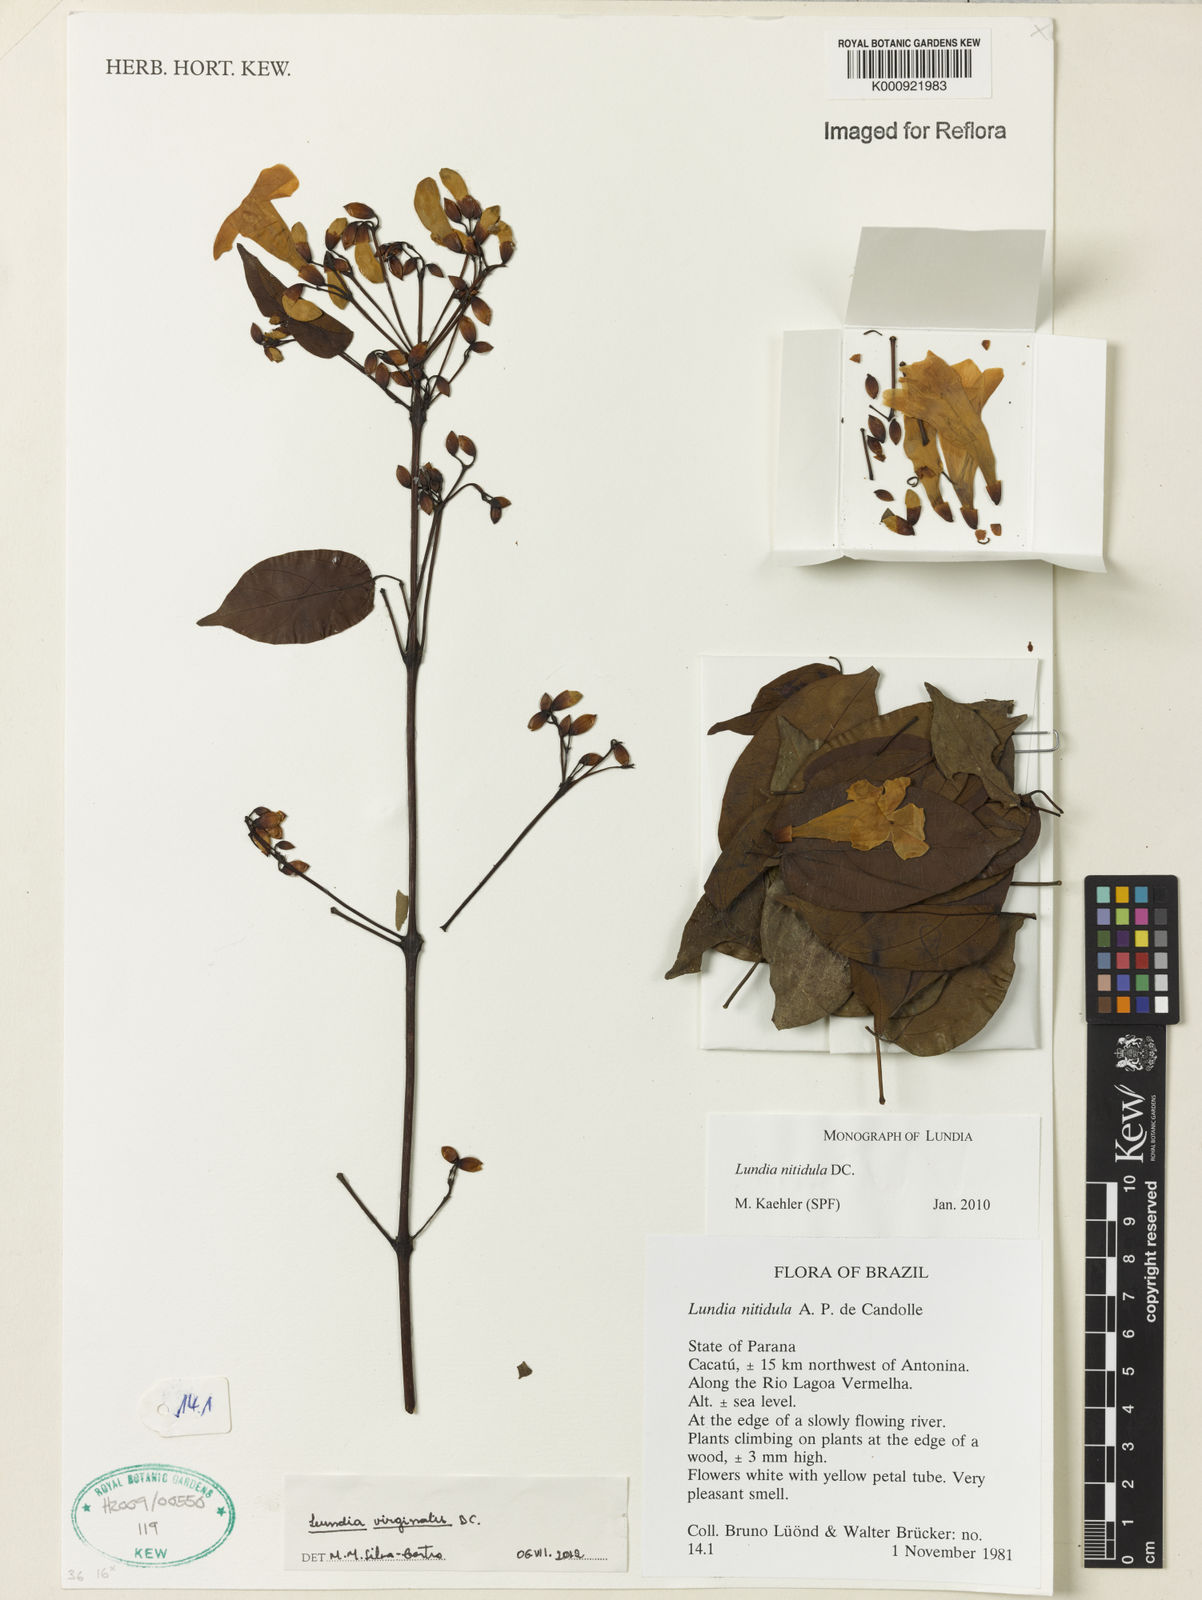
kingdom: Plantae
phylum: Tracheophyta
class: Magnoliopsida
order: Lamiales
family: Bignoniaceae
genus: Lundia
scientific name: Lundia virginalis
